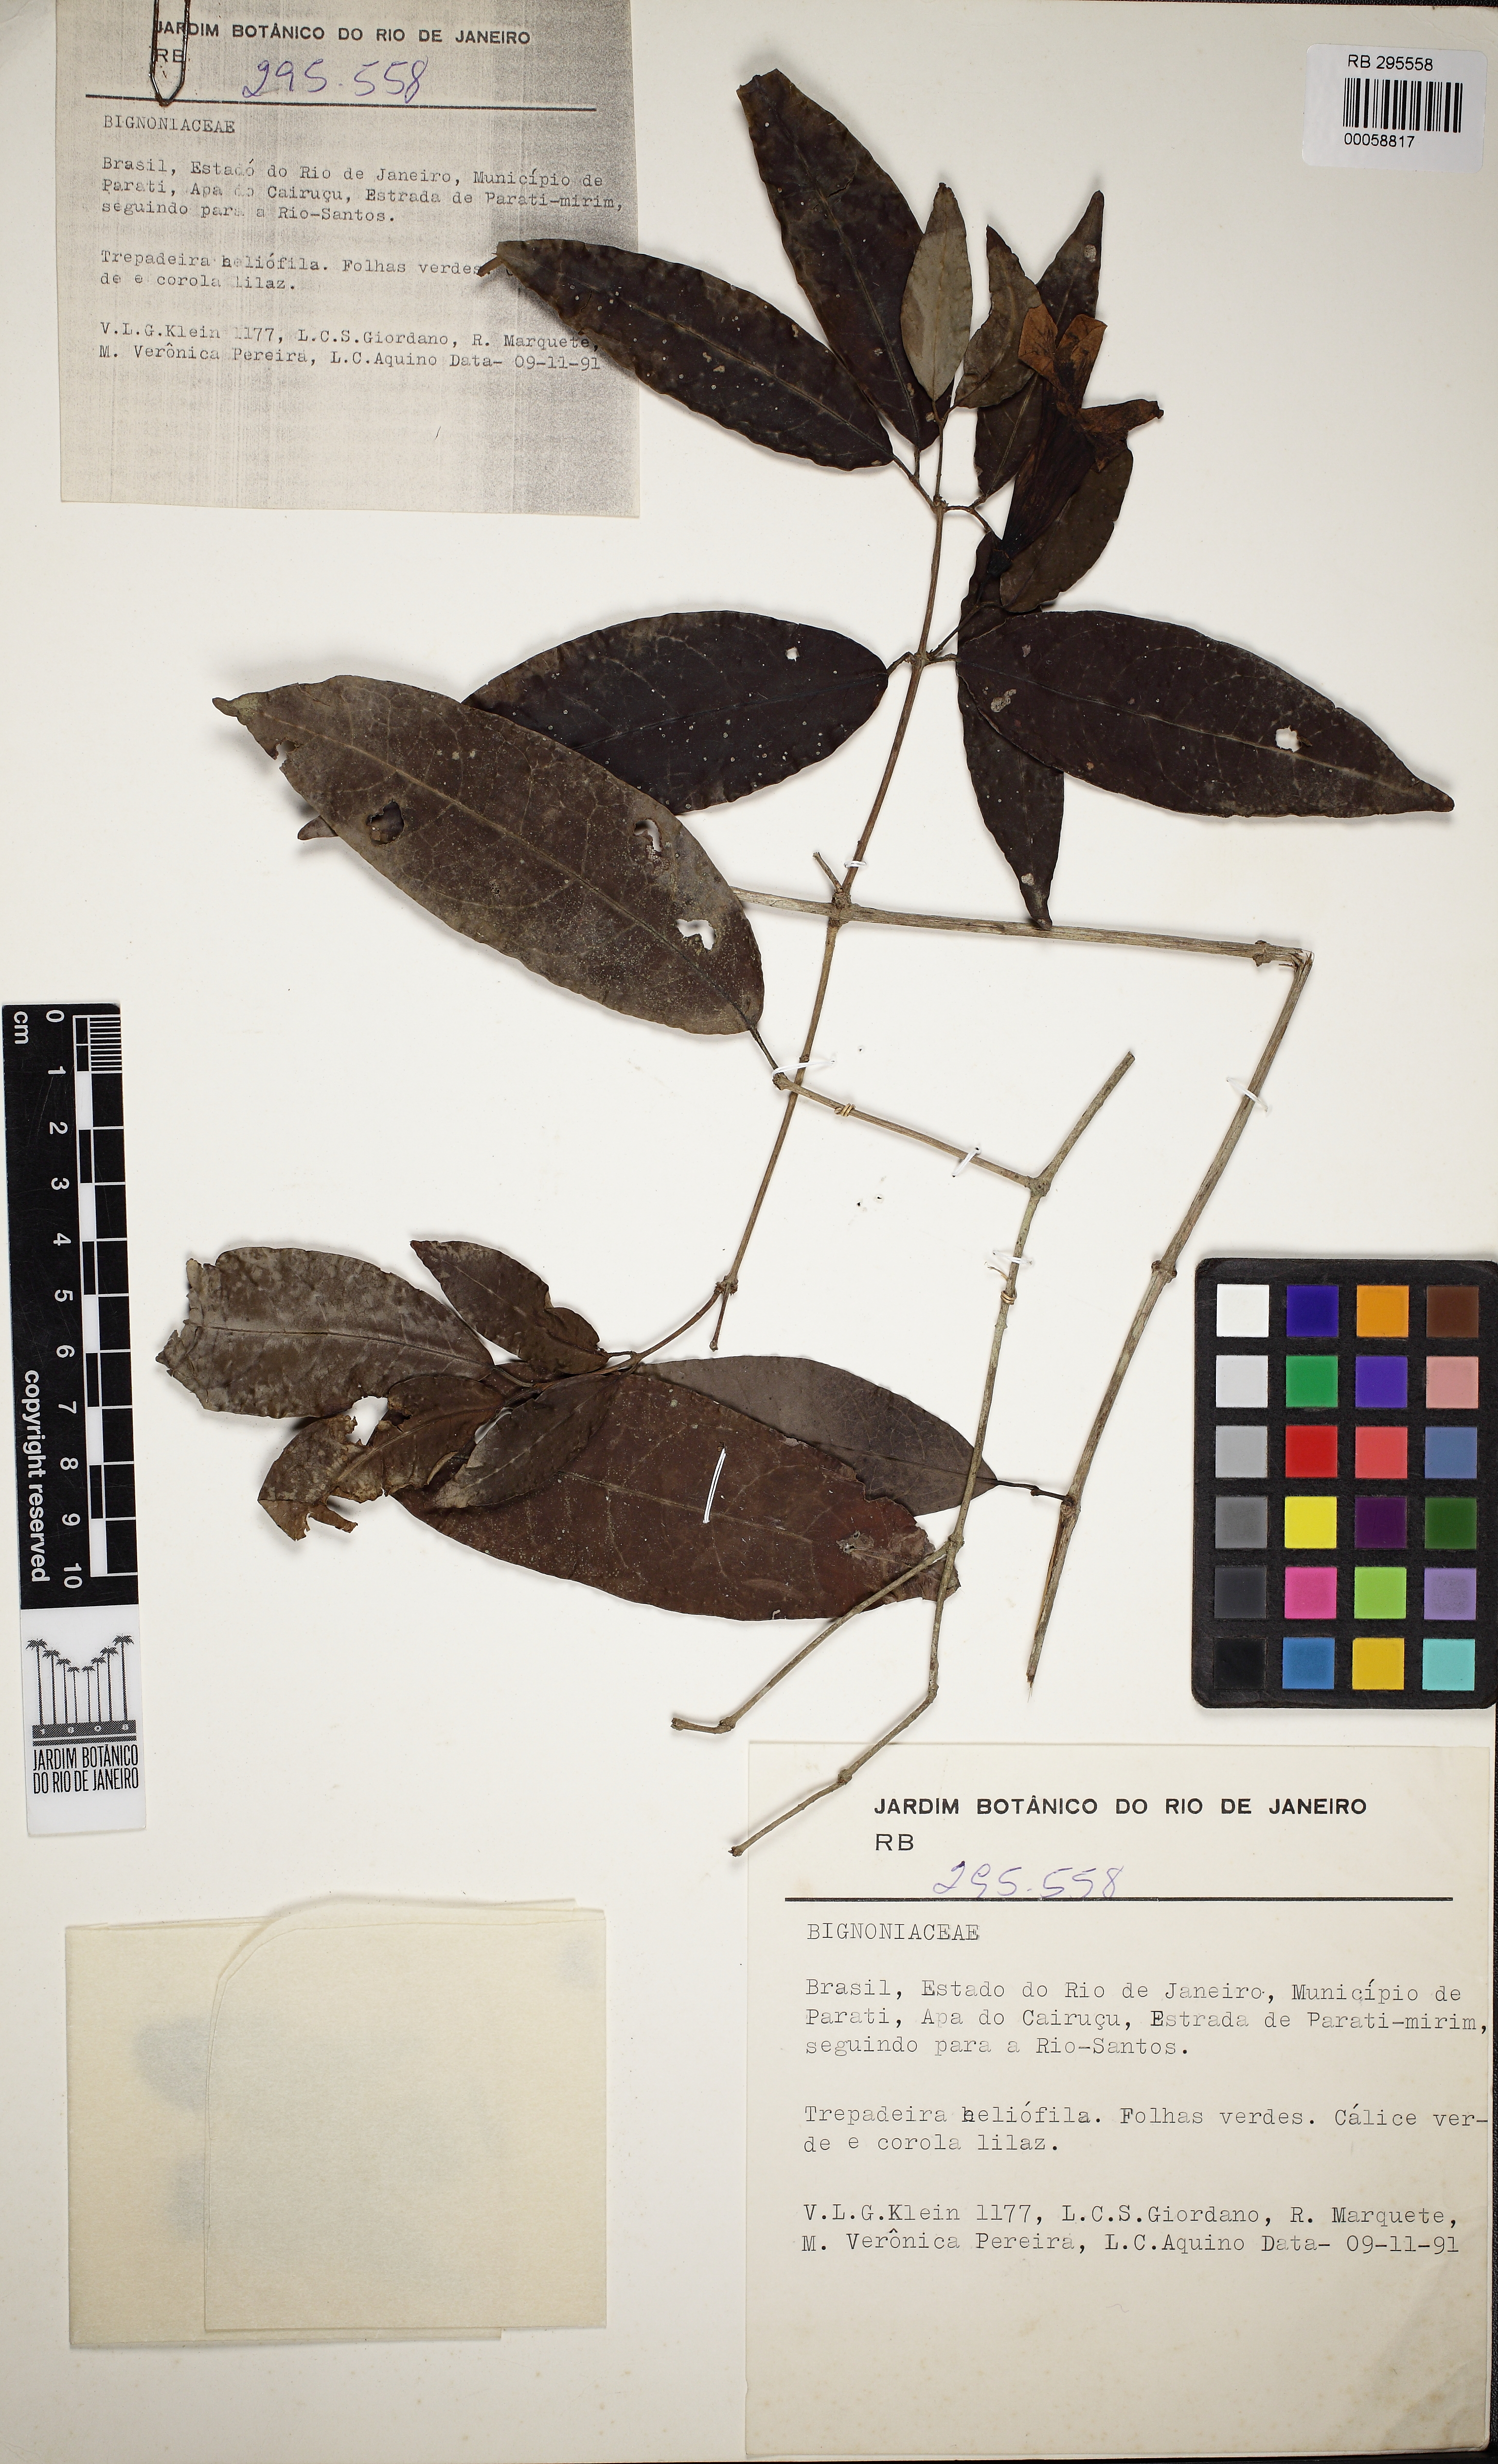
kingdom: Plantae
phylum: Tracheophyta
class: Magnoliopsida
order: Lamiales
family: Bignoniaceae
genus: Mansoa
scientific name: Mansoa difficilis
